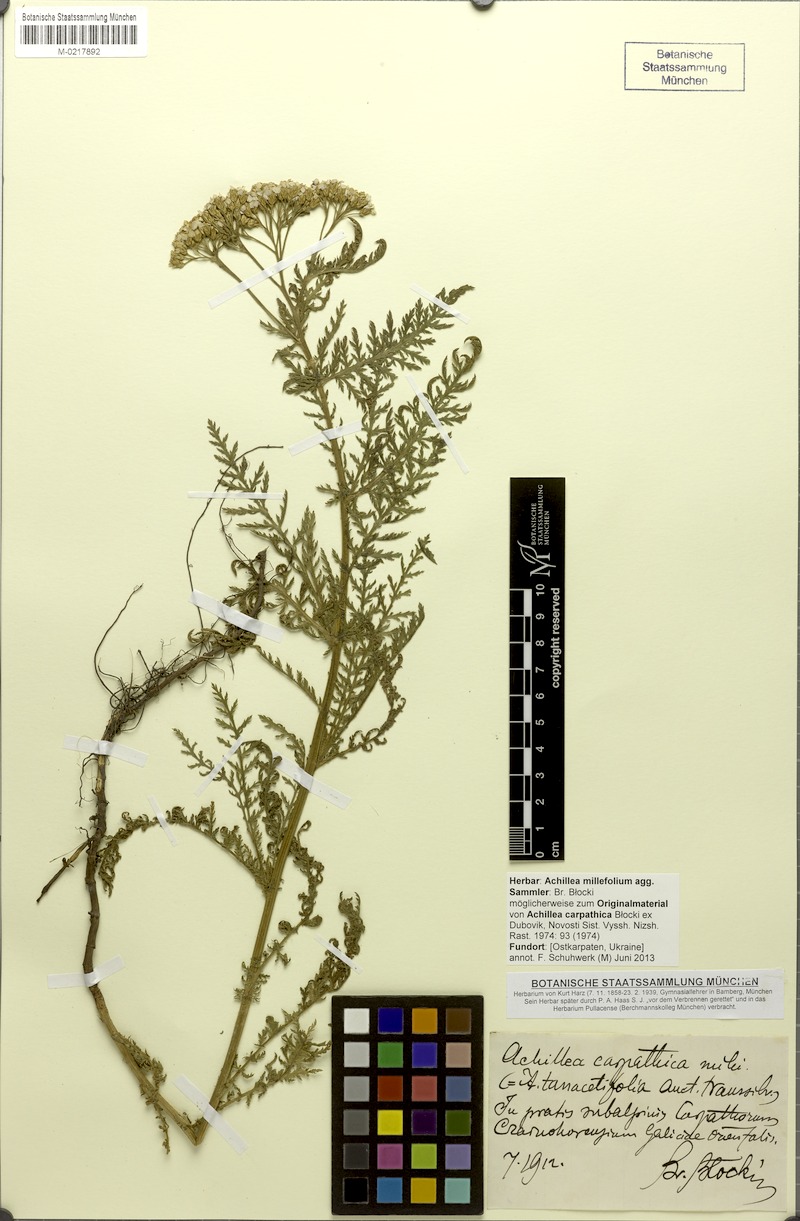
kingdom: Plantae
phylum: Tracheophyta
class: Magnoliopsida
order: Asterales
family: Asteraceae
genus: Achillea
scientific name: Achillea millefolium
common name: Yarrow
